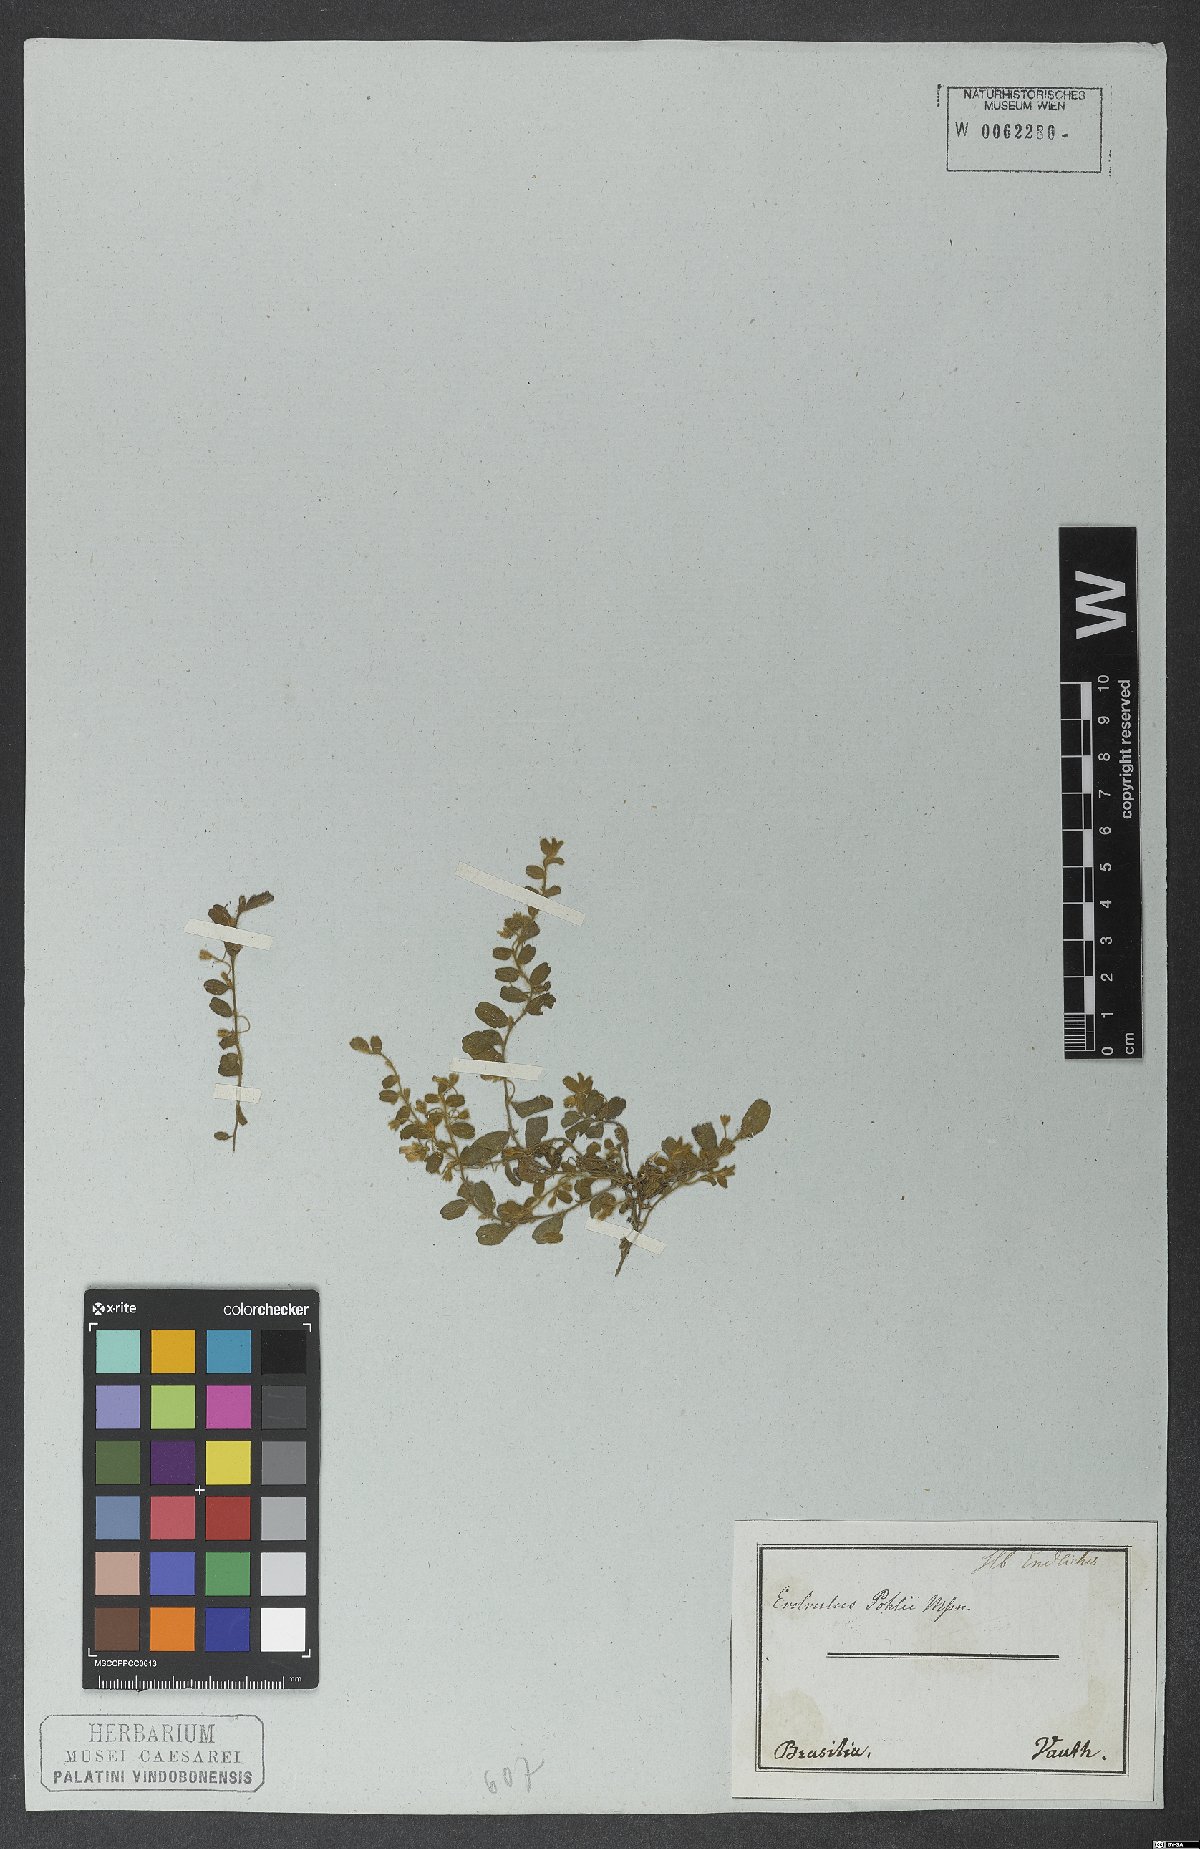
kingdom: Plantae
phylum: Tracheophyta
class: Magnoliopsida
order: Solanales
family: Convolvulaceae
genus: Evolvulus
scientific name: Evolvulus pohlii
